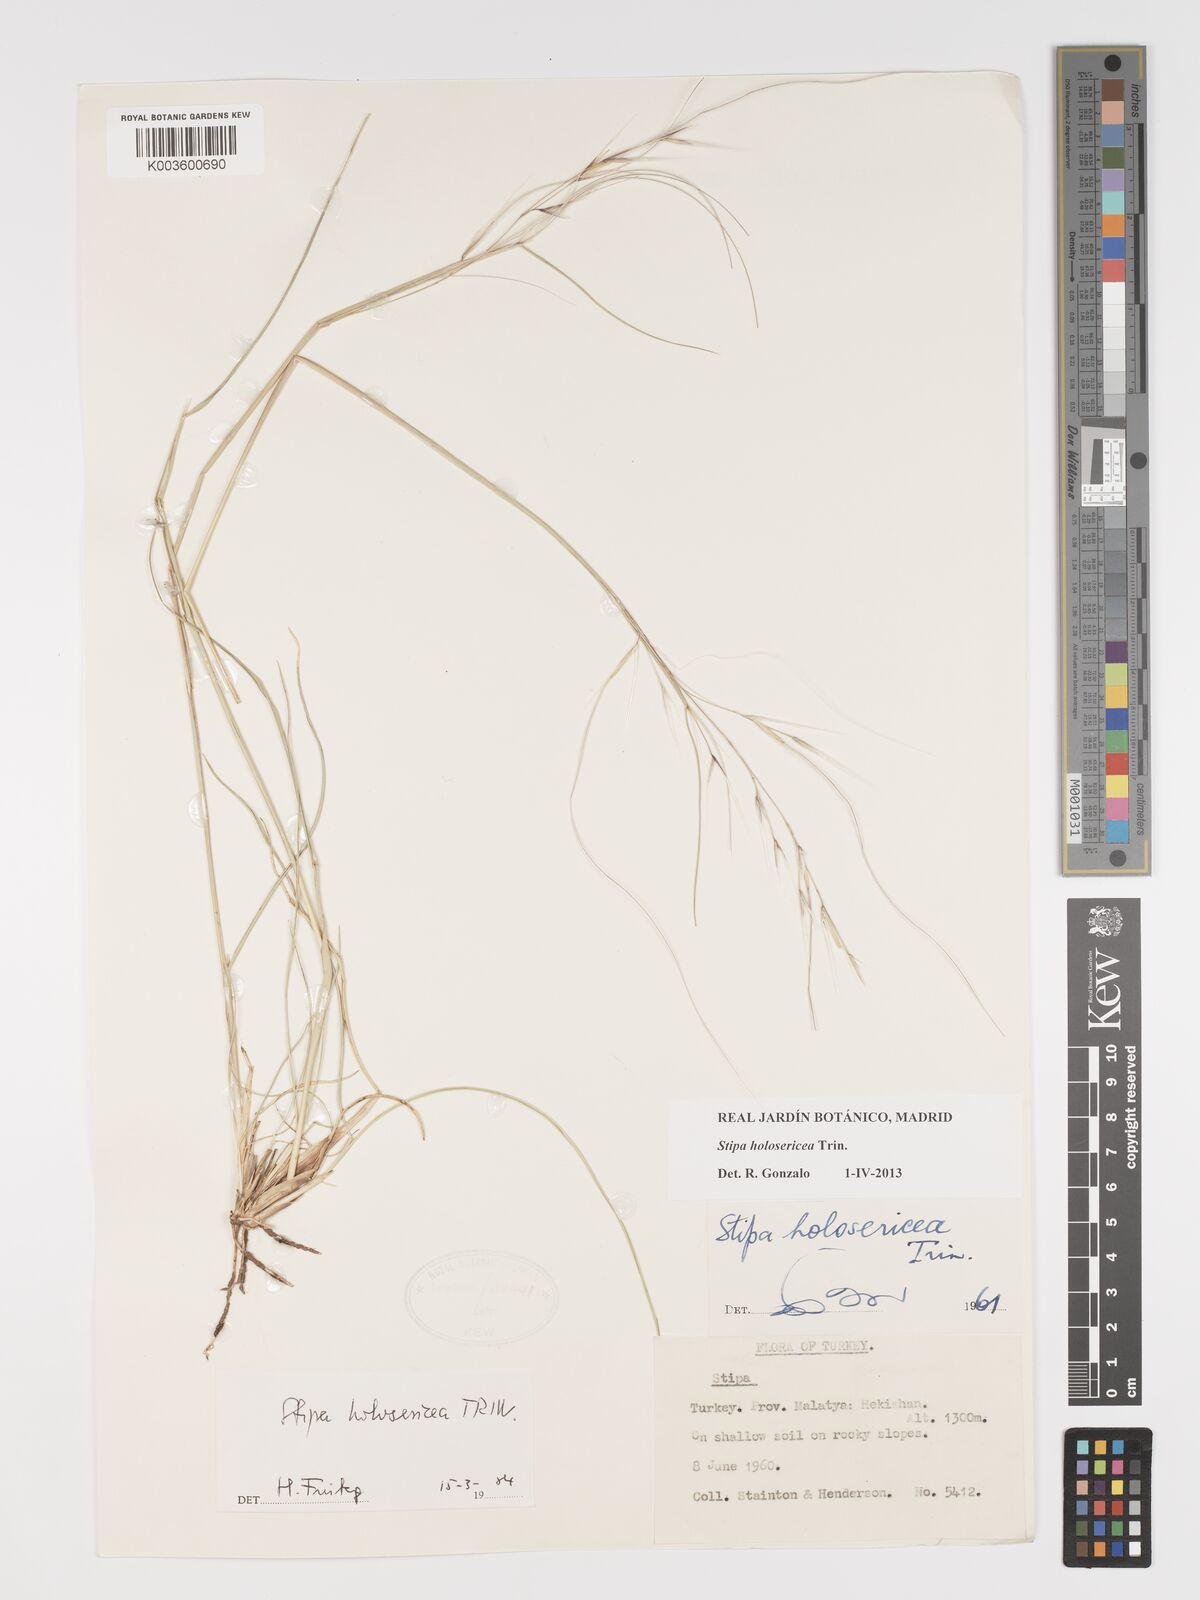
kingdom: Plantae
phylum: Tracheophyta
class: Liliopsida
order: Poales
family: Poaceae
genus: Stipa
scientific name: Stipa holosericea
